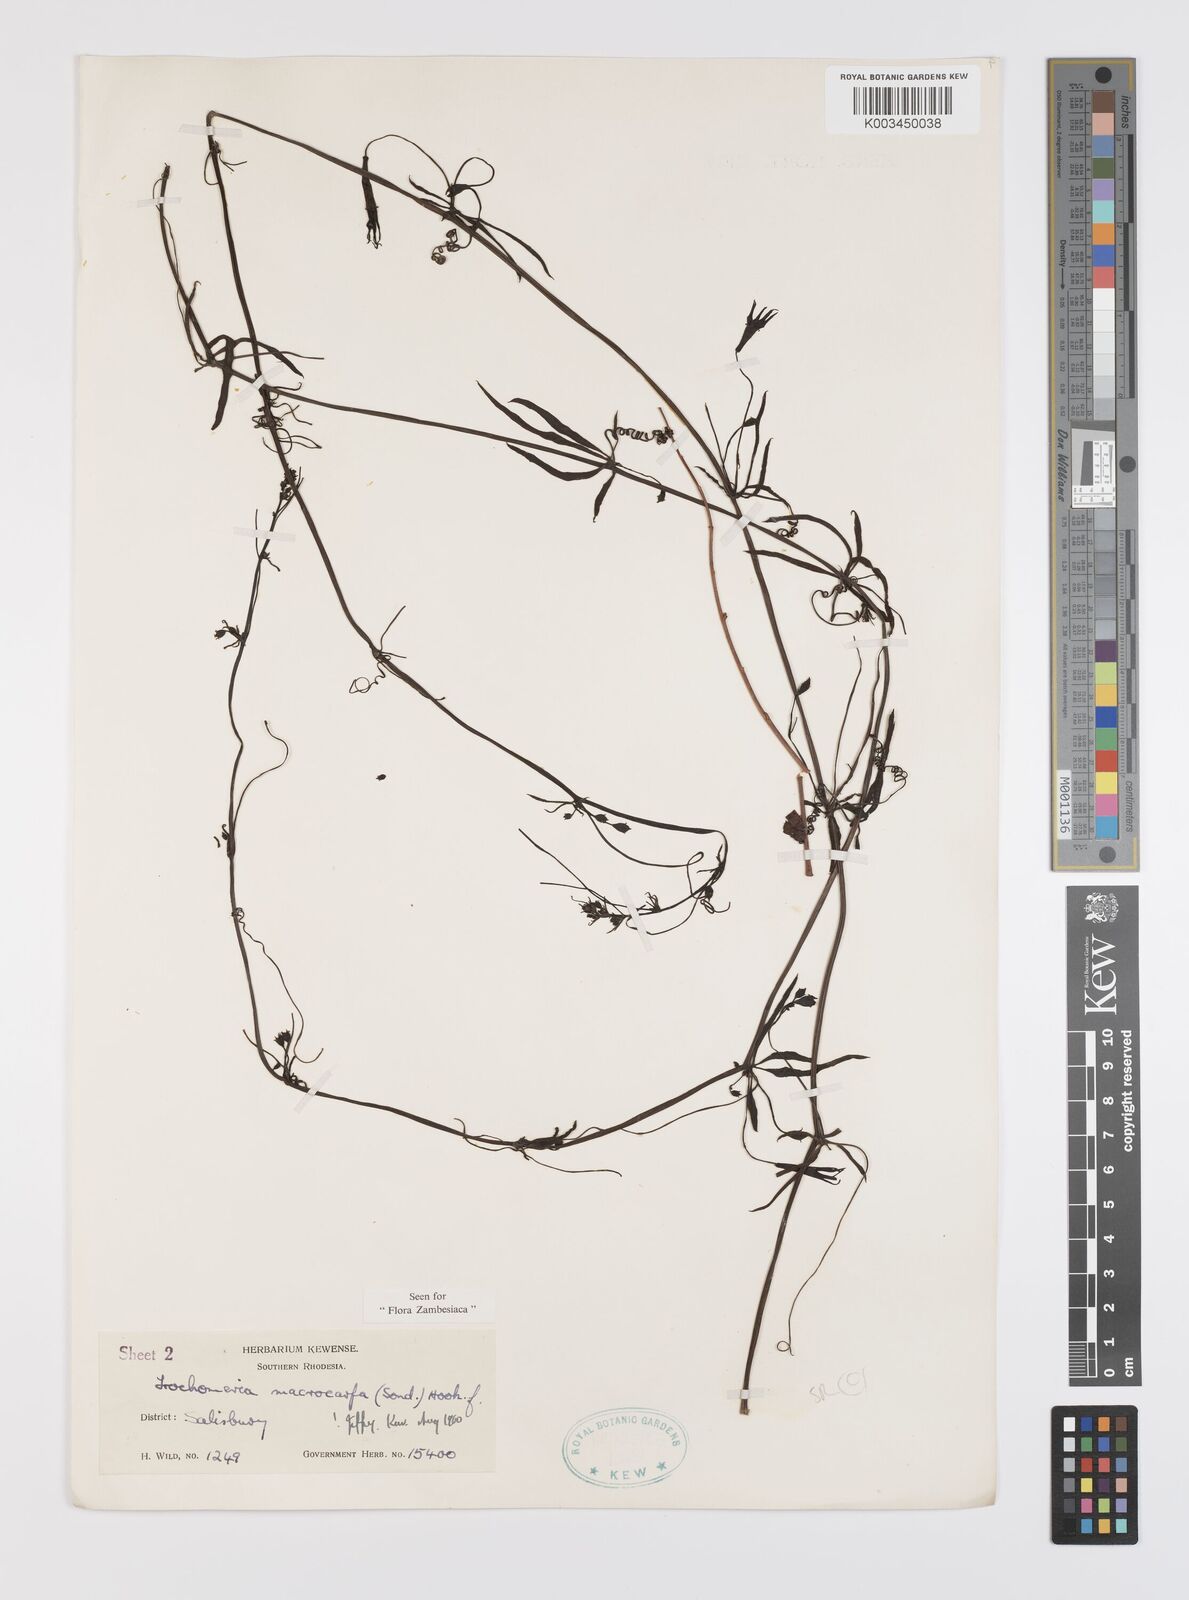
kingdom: Plantae
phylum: Tracheophyta
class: Magnoliopsida
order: Cucurbitales
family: Cucurbitaceae
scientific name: Cucurbitaceae
